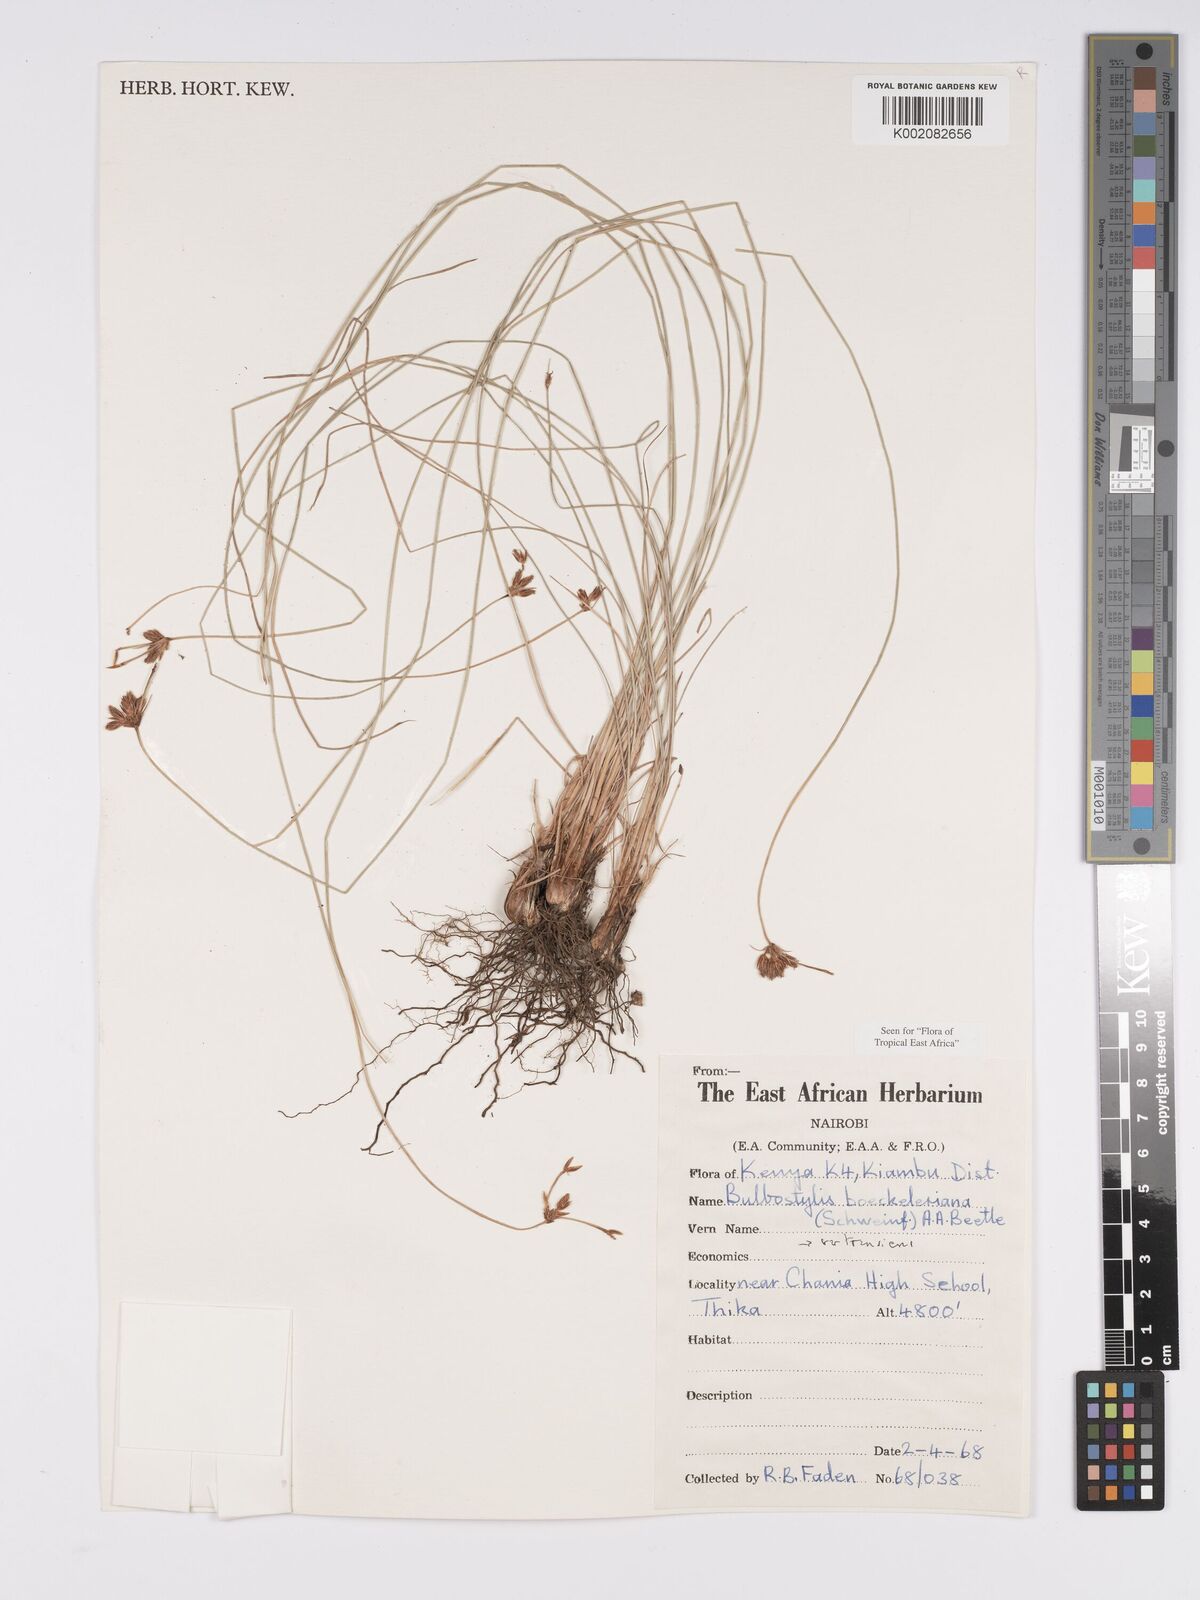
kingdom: Plantae
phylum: Tracheophyta
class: Liliopsida
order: Poales
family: Cyperaceae
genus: Bulbostylis
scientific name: Bulbostylis boeckeleriana
